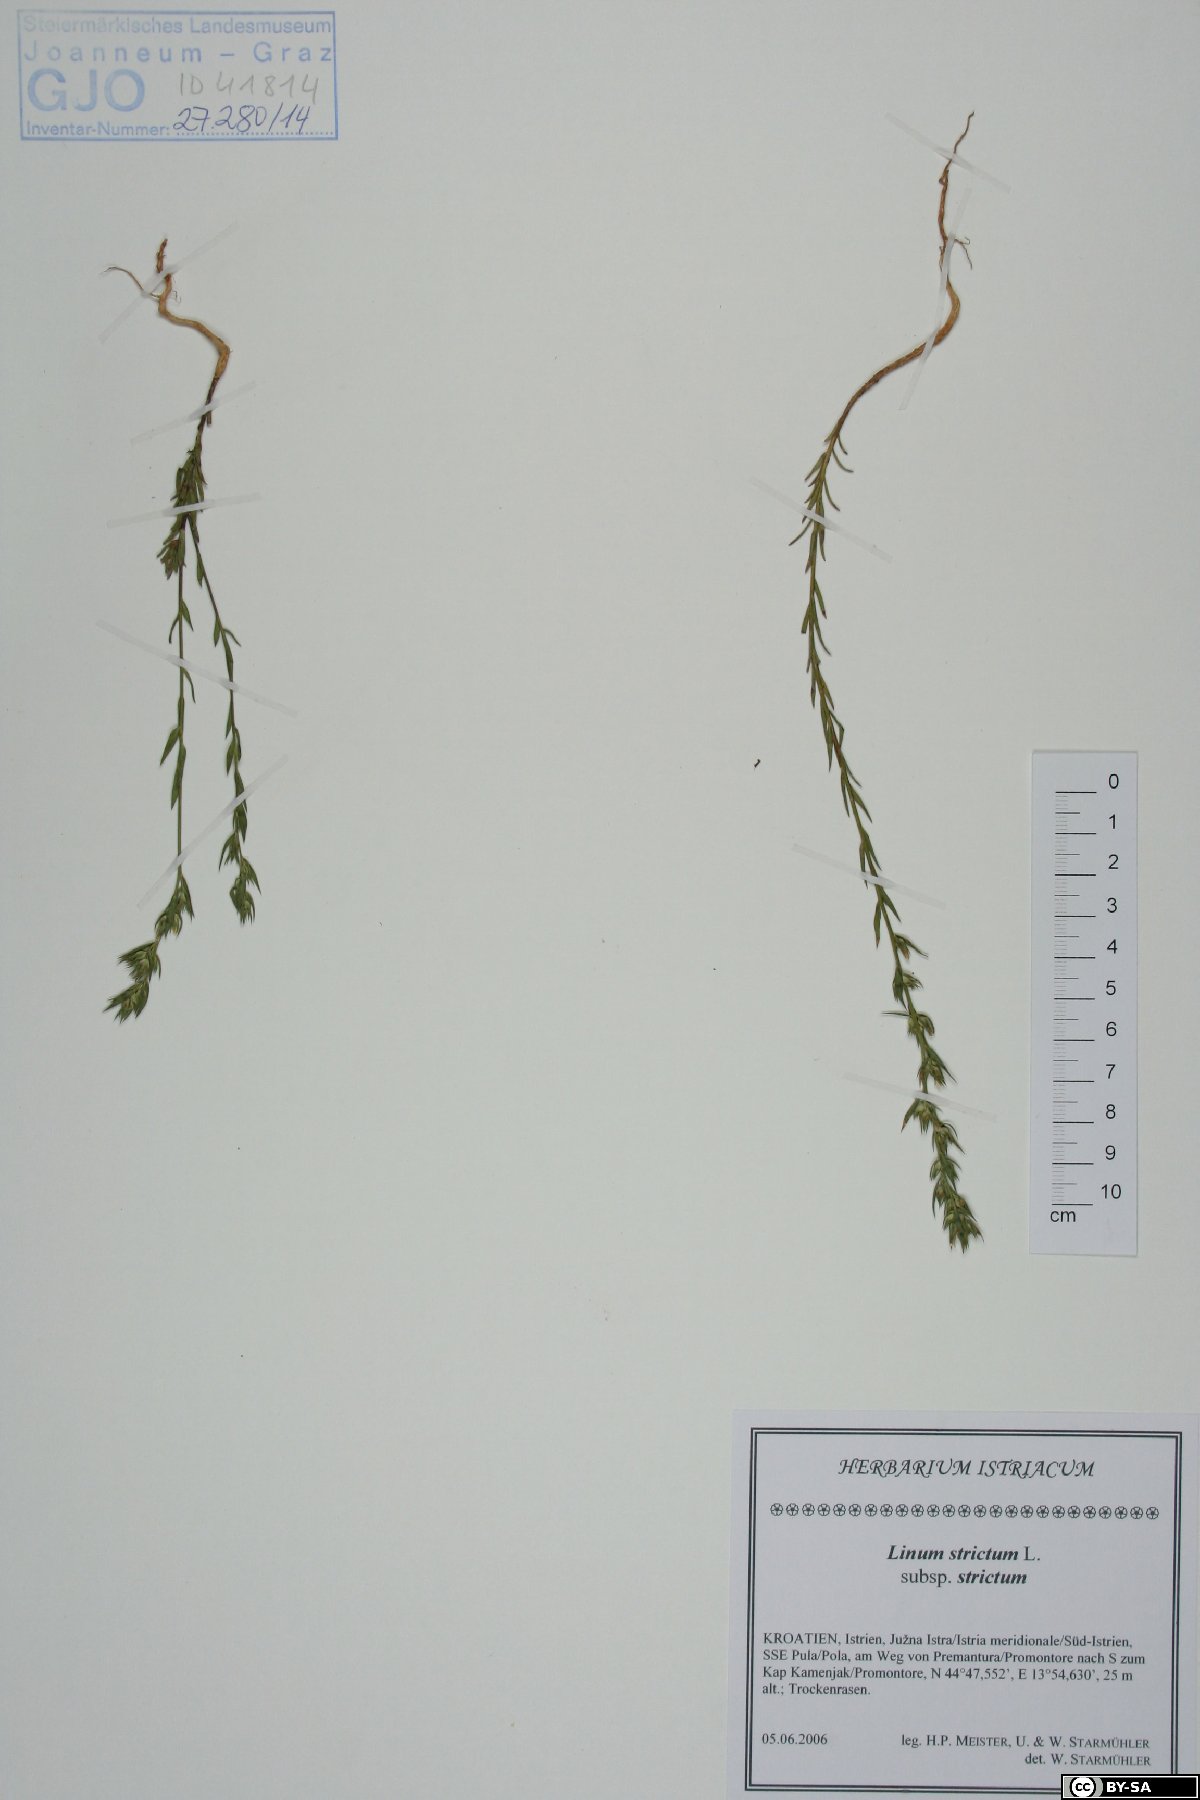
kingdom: Plantae
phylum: Tracheophyta
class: Magnoliopsida
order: Malpighiales
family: Linaceae
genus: Linum
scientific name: Linum strictum
